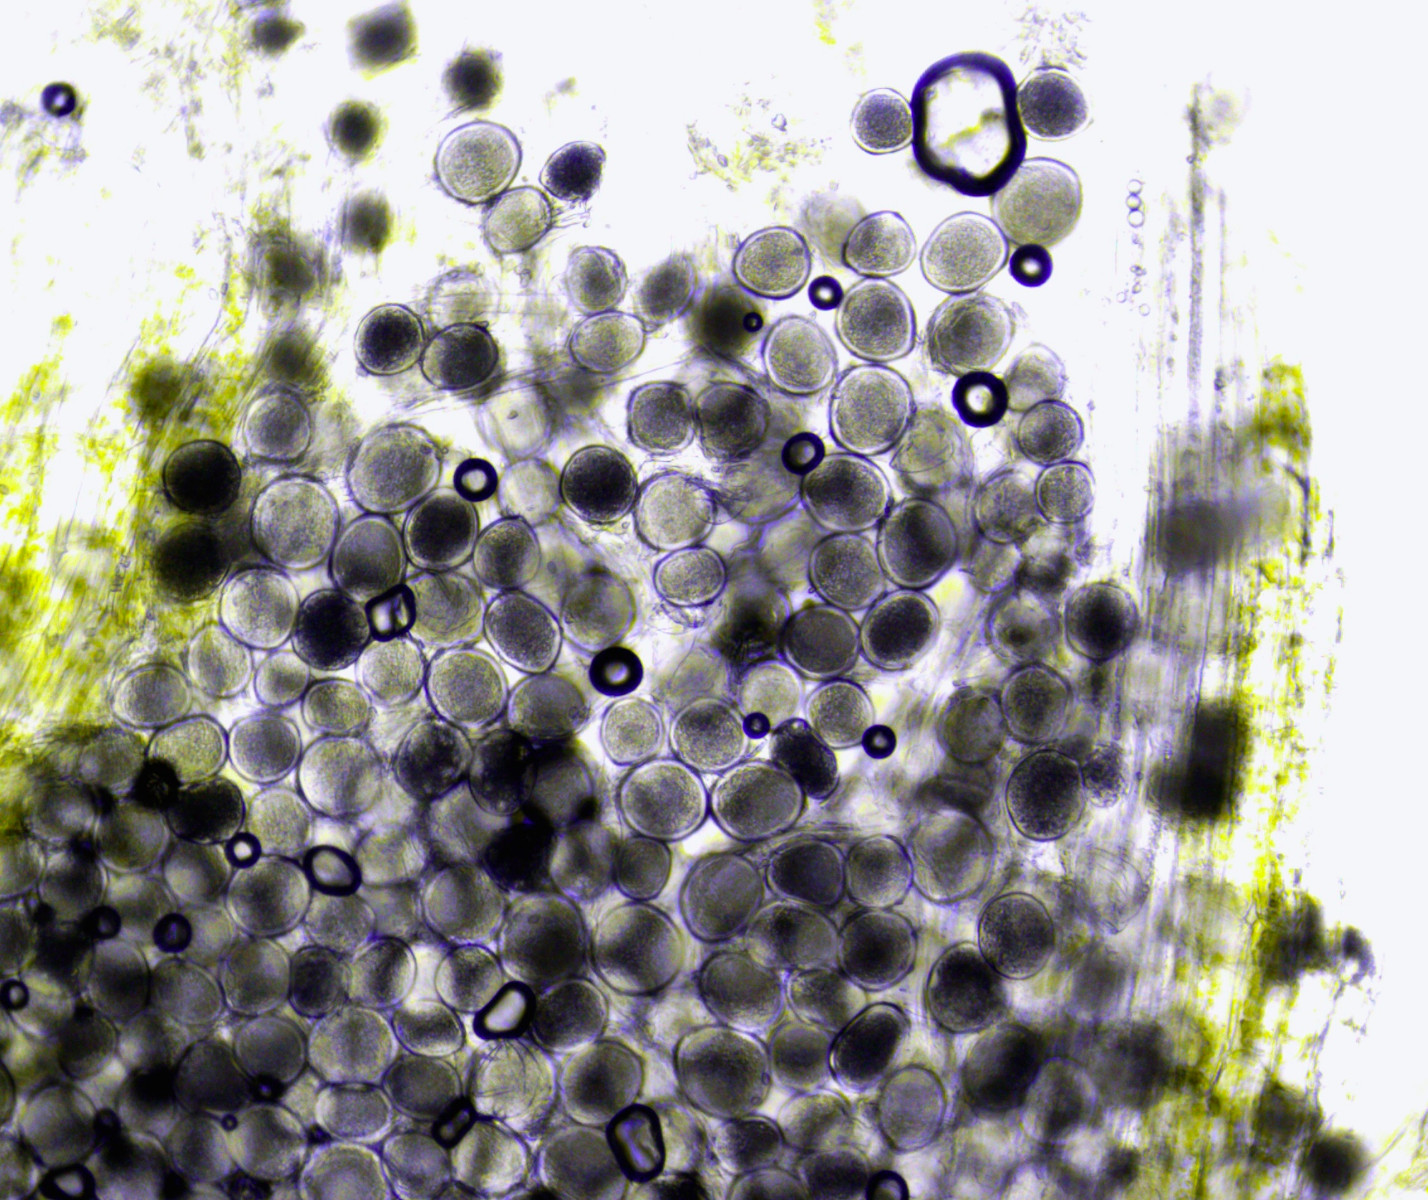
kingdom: Fungi
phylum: Ascomycota
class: Taphrinomycetes
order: Taphrinales
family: Taphrinaceae
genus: Protomyces
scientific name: Protomyces macrosporus
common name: skvalderkål-vablesæk
